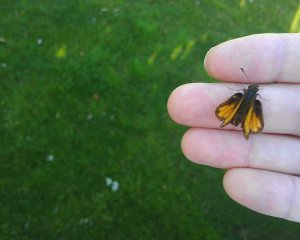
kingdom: Animalia
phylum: Arthropoda
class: Insecta
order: Lepidoptera
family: Hesperiidae
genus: Lon
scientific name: Lon hobomok
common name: Hobomok Skipper
